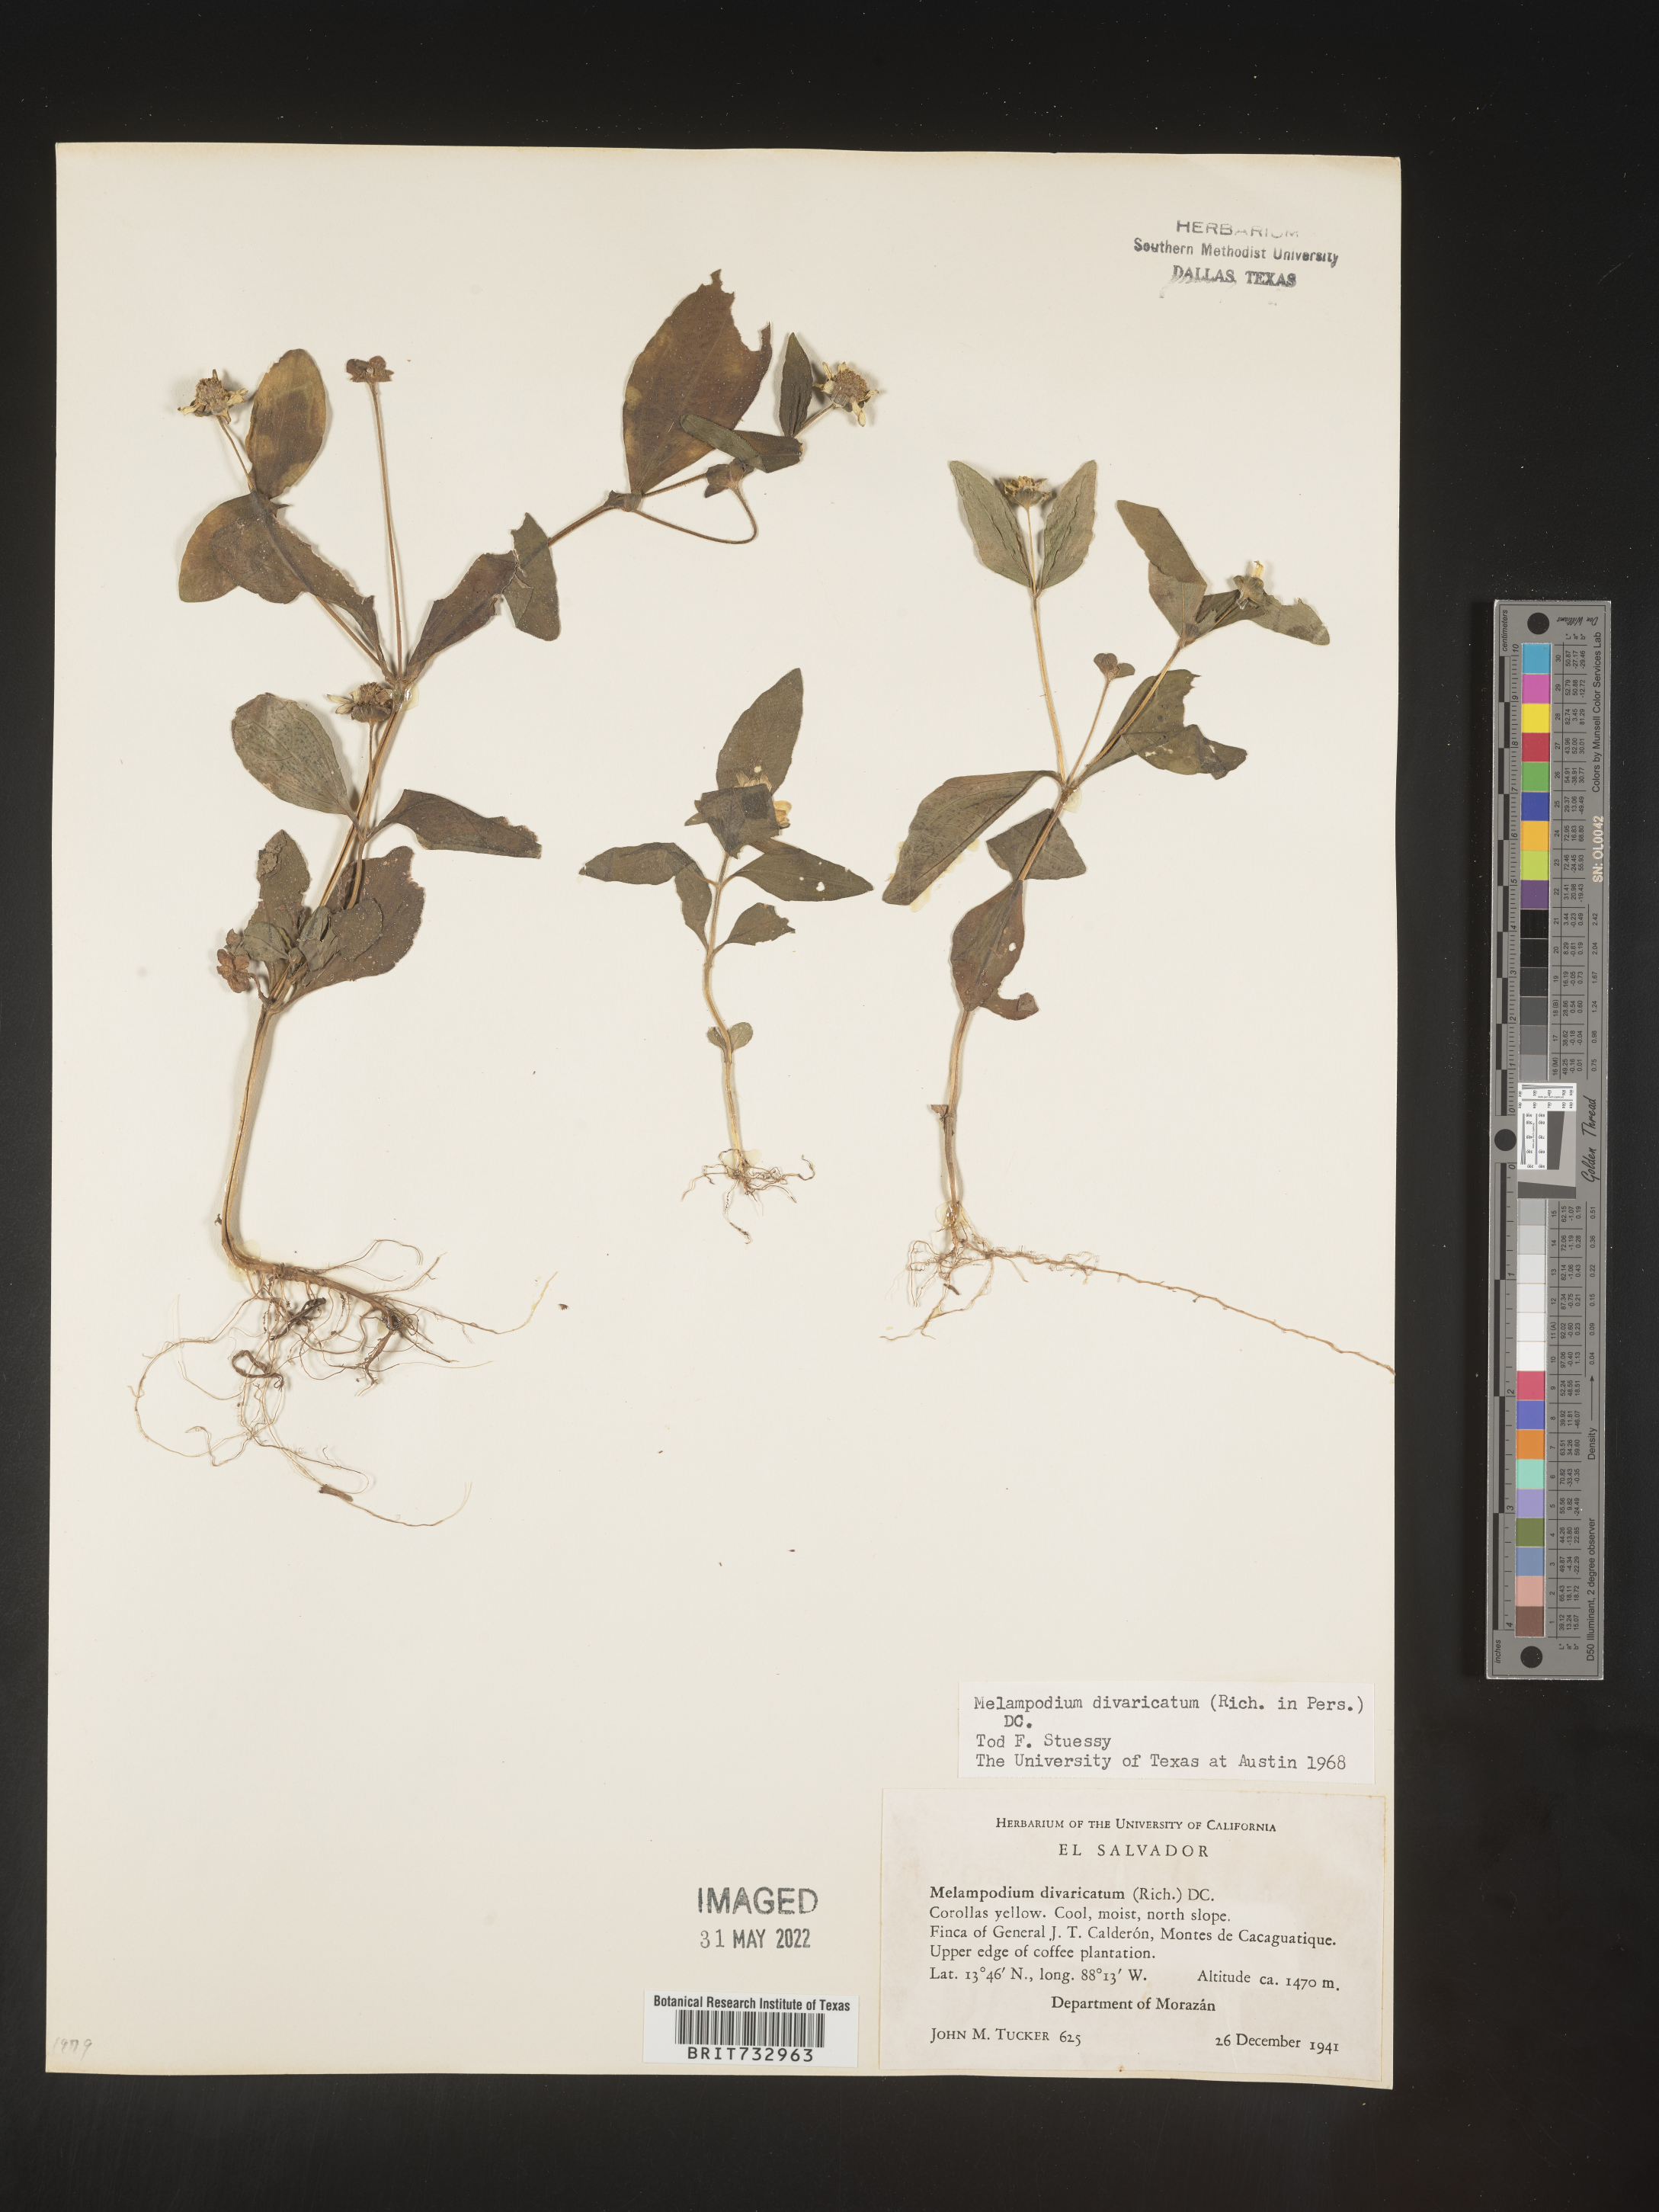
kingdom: Plantae
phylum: Tracheophyta
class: Magnoliopsida
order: Asterales
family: Asteraceae
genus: Melampodium
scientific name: Melampodium
